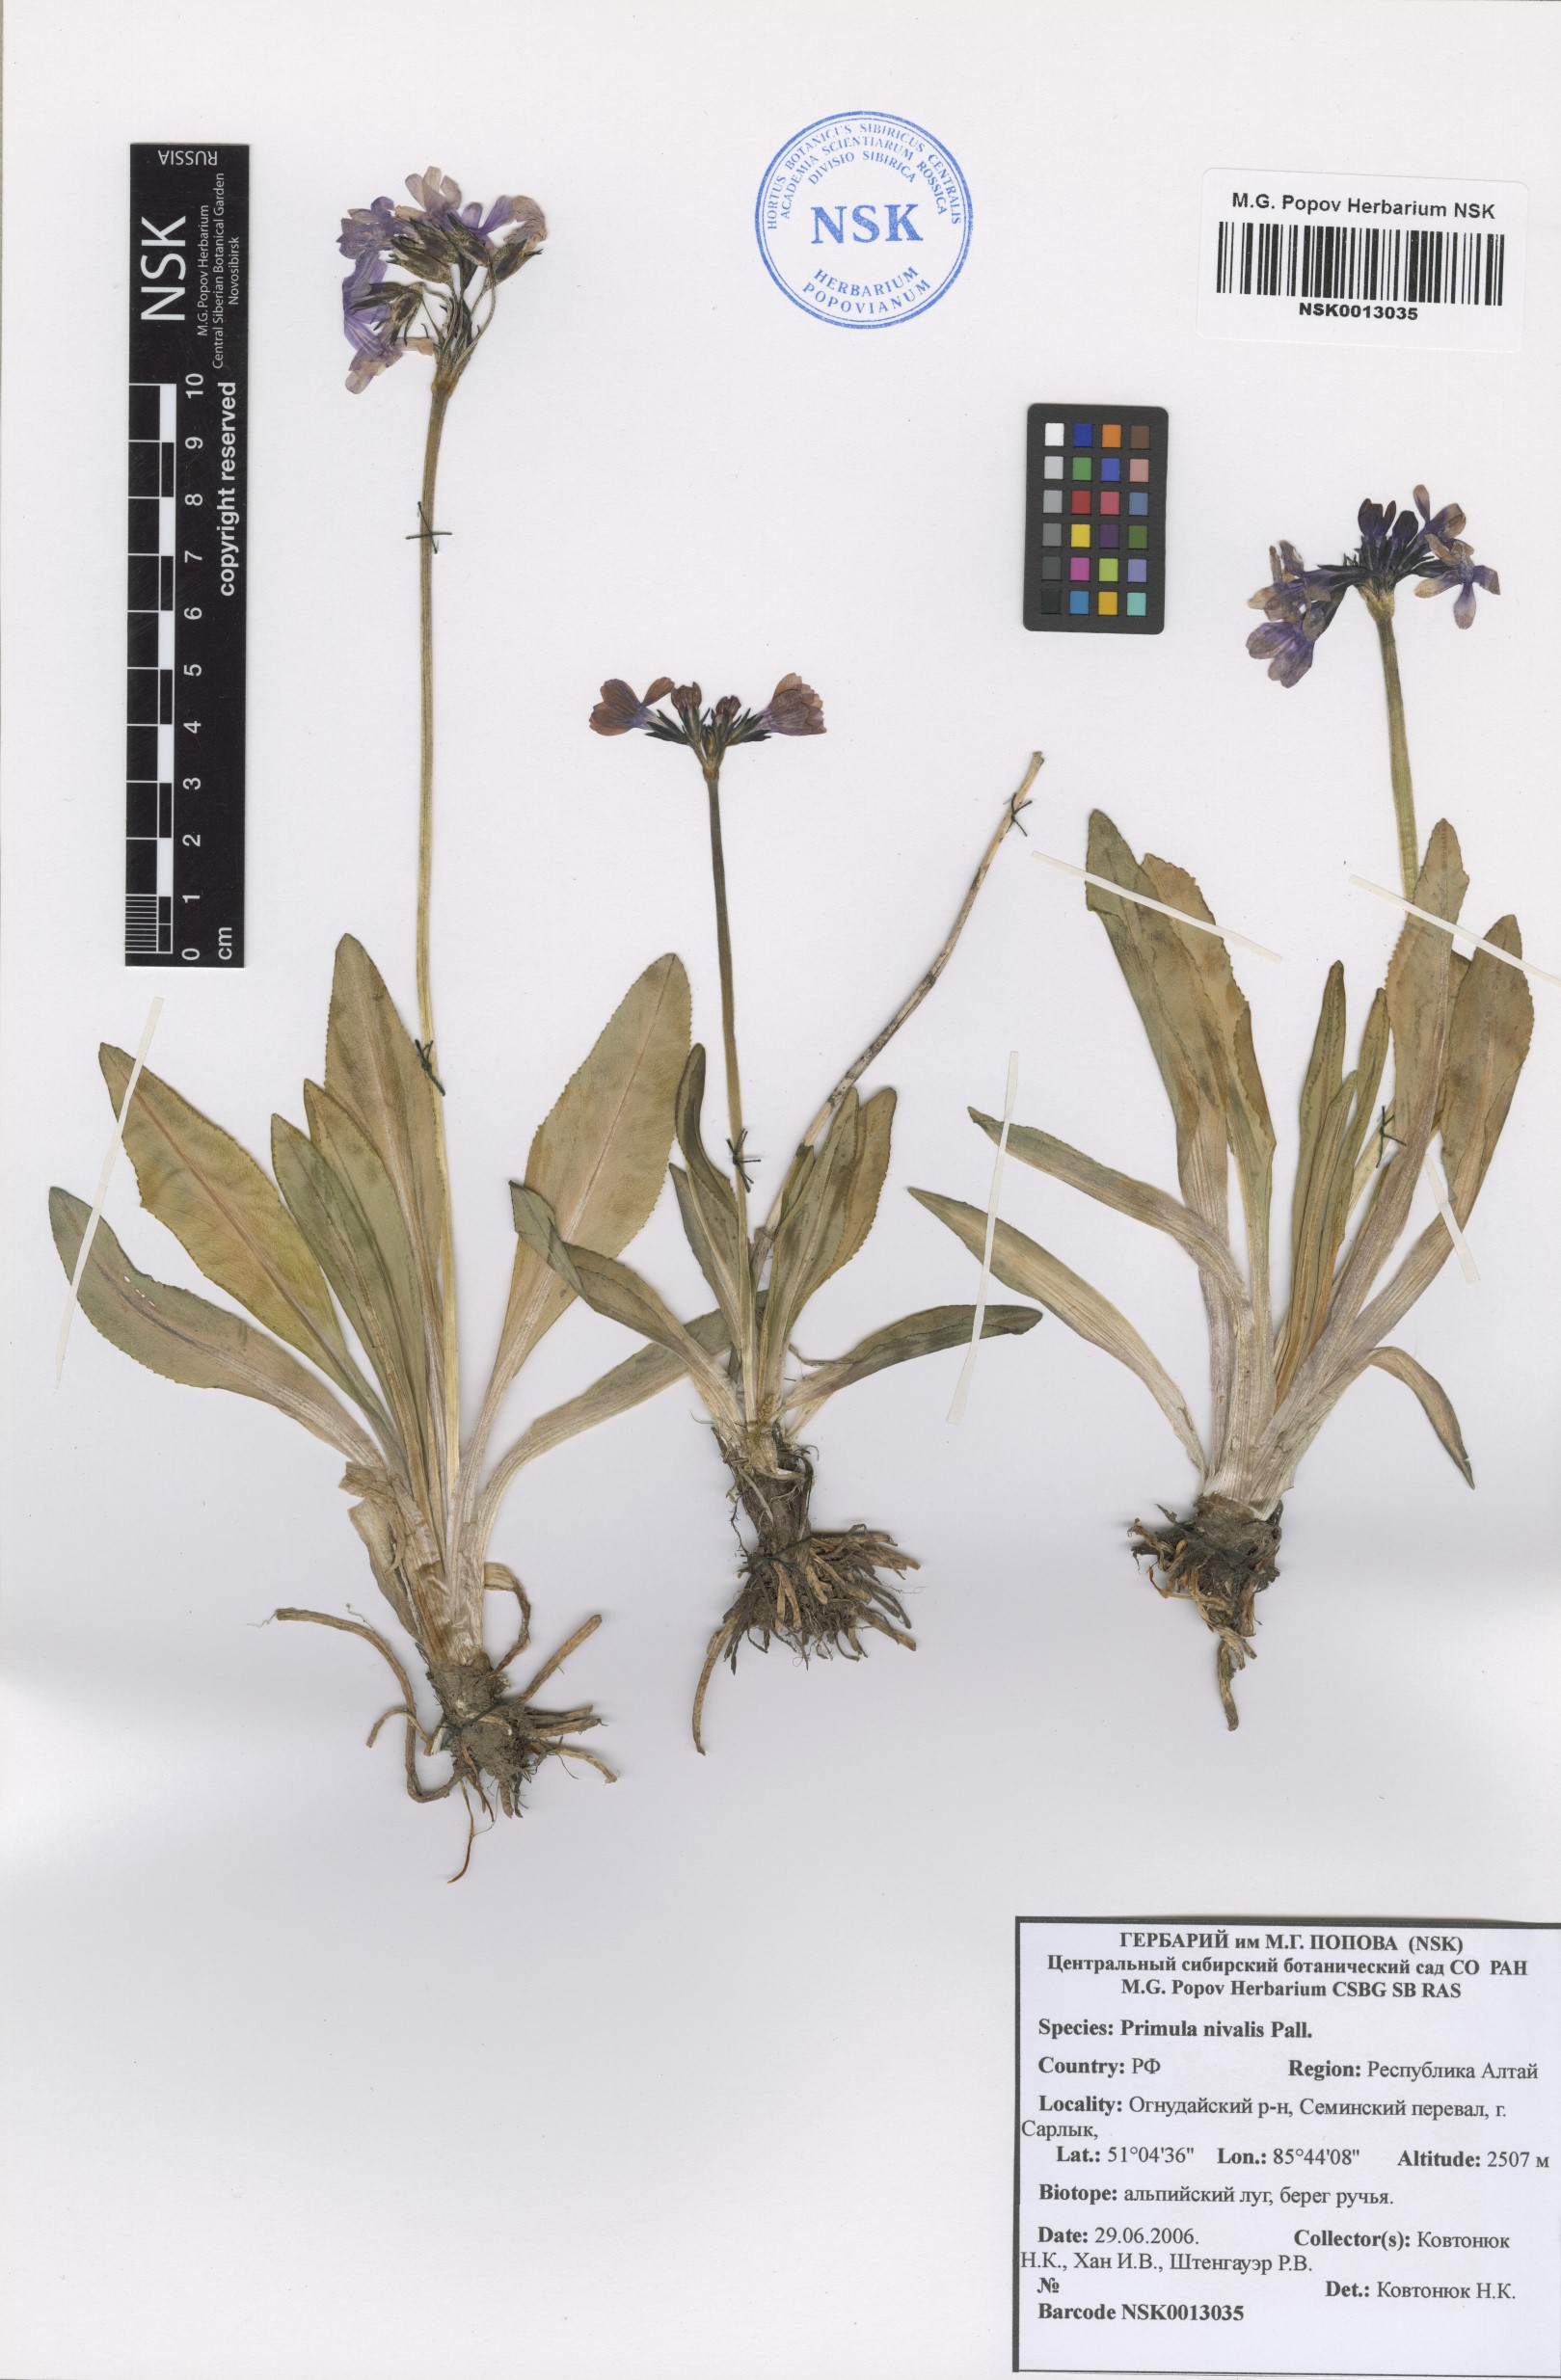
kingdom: Plantae
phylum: Tracheophyta
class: Magnoliopsida
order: Ericales
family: Primulaceae
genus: Primula
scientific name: Primula nivalis
